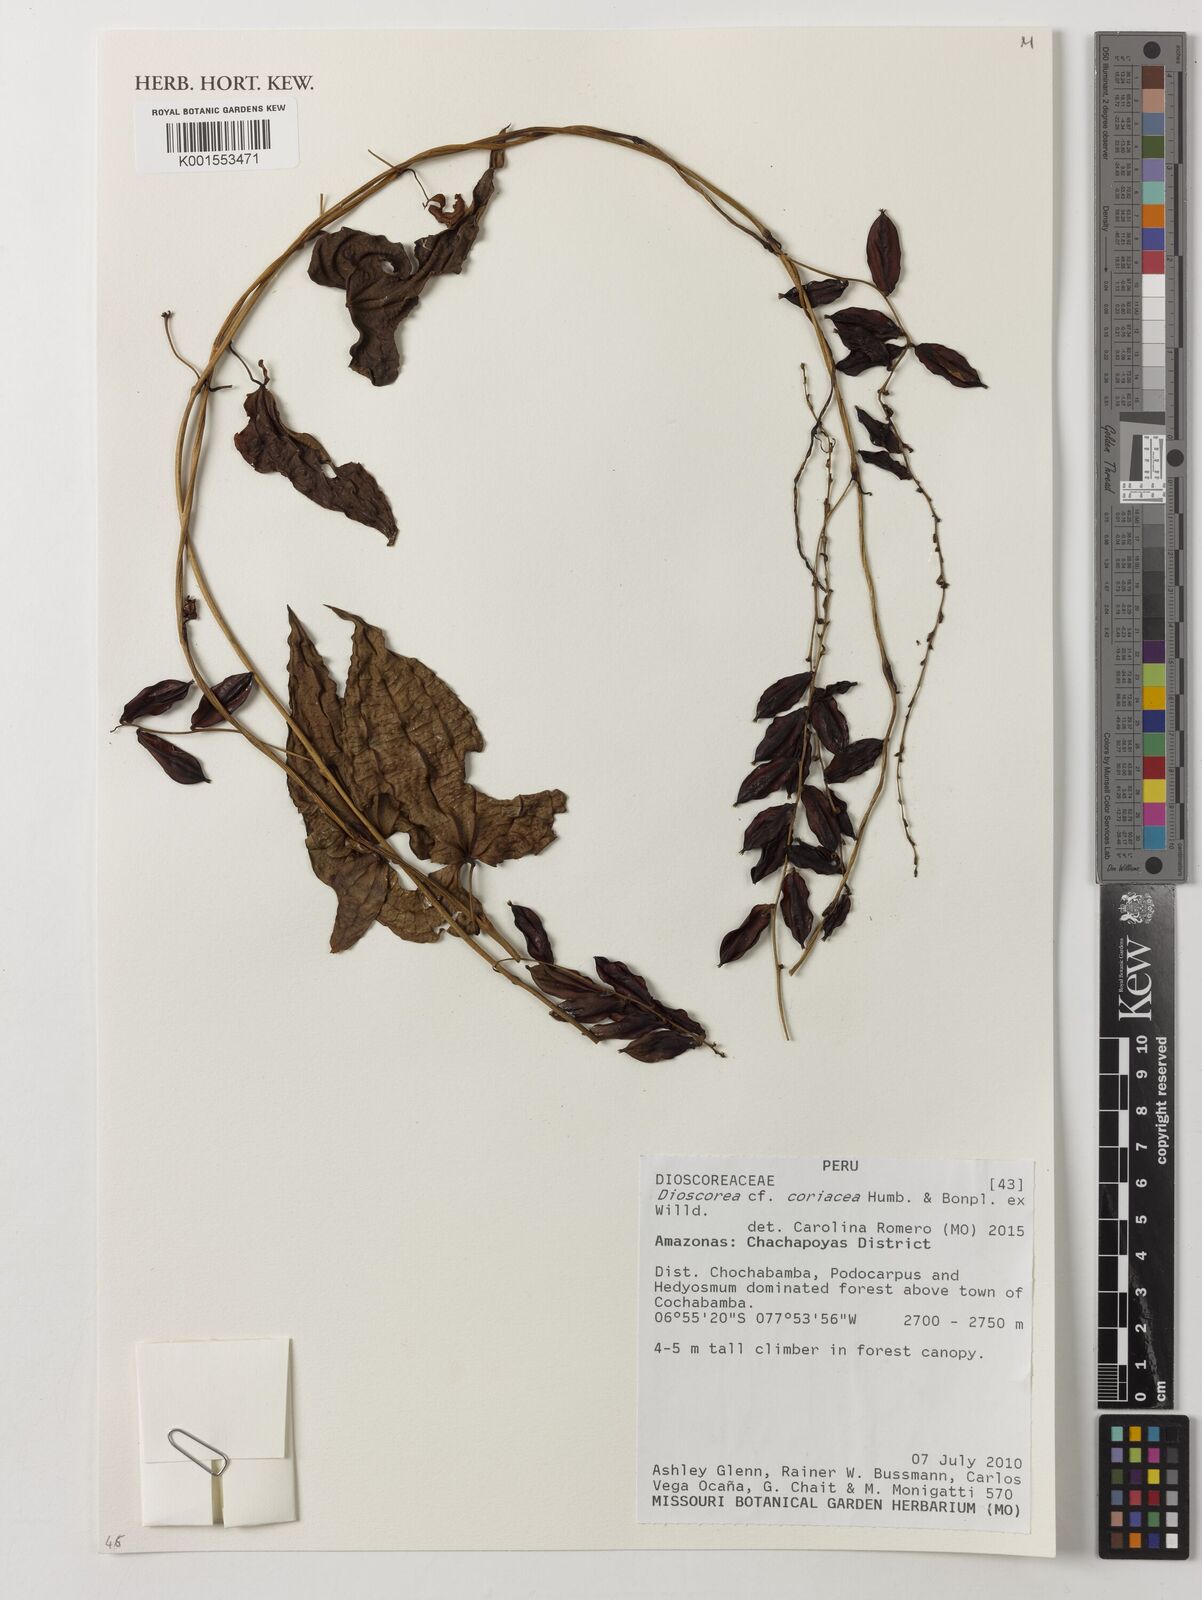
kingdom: Plantae
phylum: Tracheophyta
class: Liliopsida
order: Dioscoreales
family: Dioscoreaceae
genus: Dioscorea
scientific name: Dioscorea coriacea
